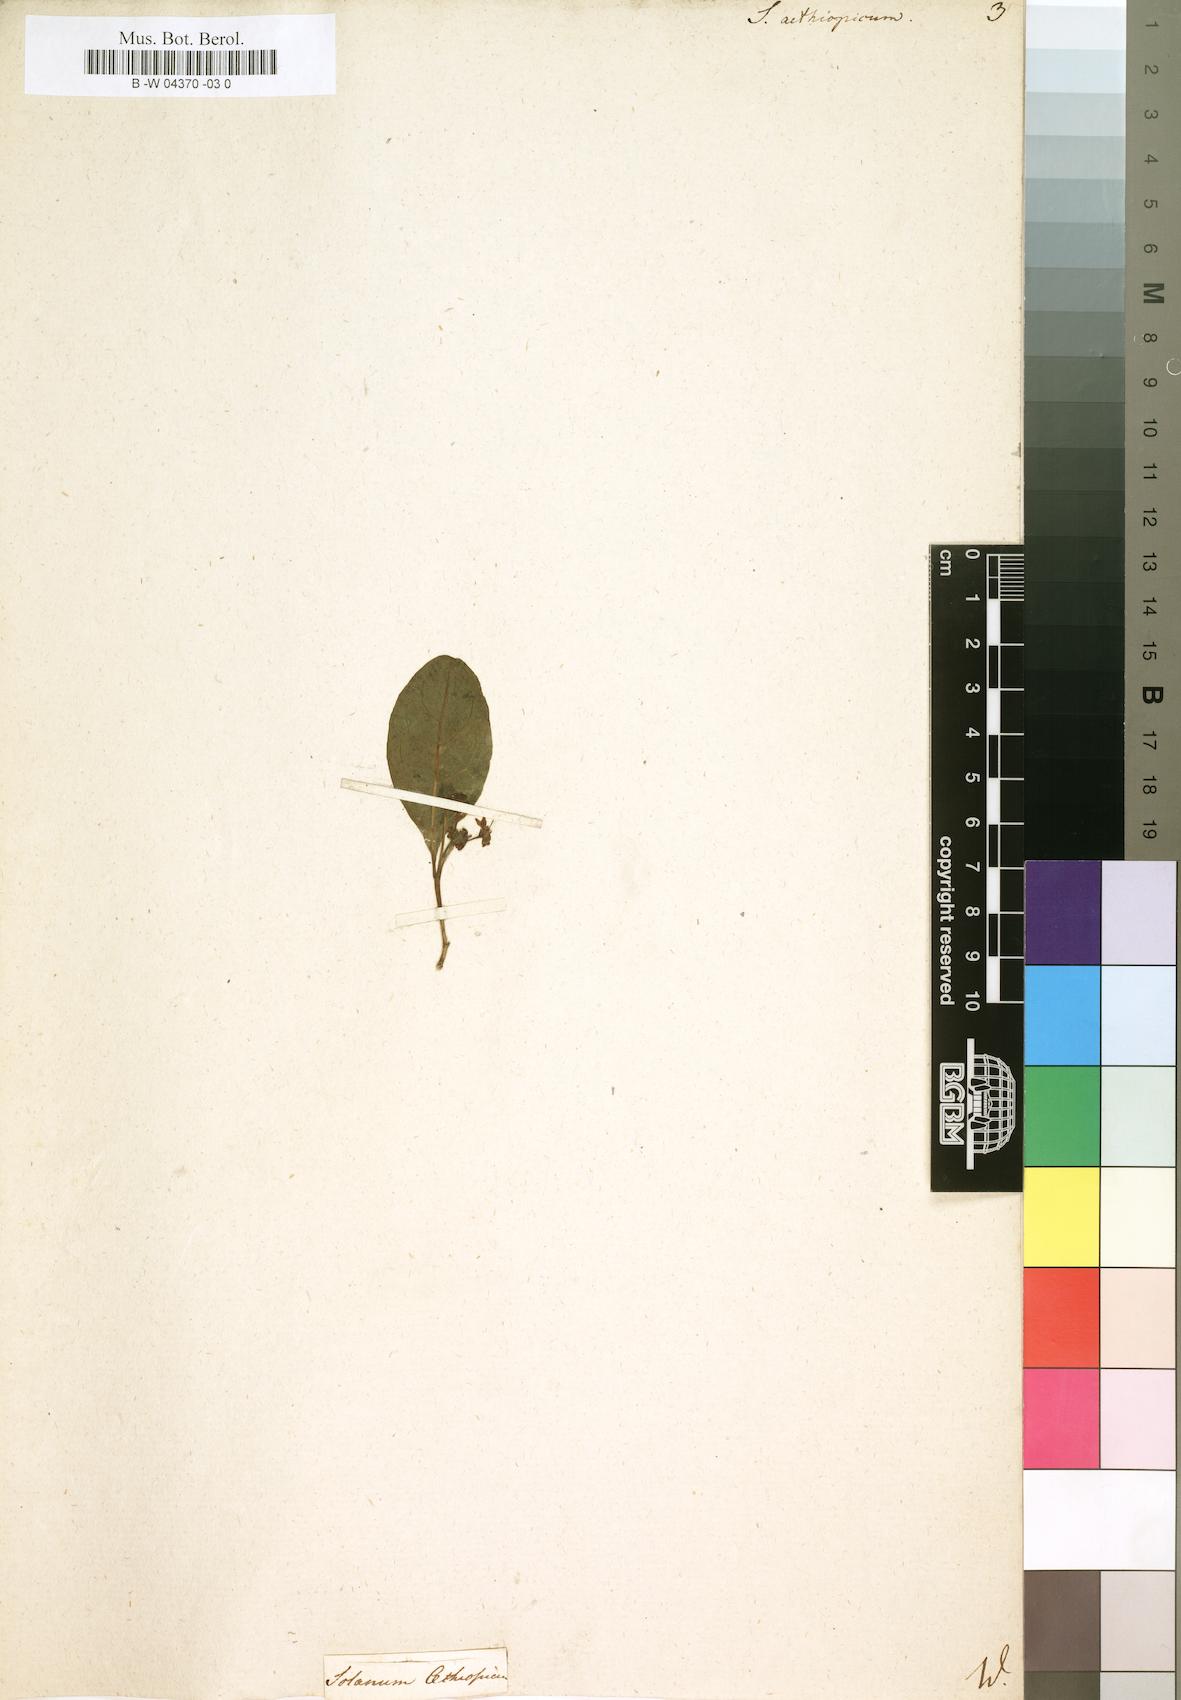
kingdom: Plantae
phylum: Tracheophyta
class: Magnoliopsida
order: Solanales
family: Solanaceae
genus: Solanum
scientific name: Solanum aethiopicum
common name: Gilo
